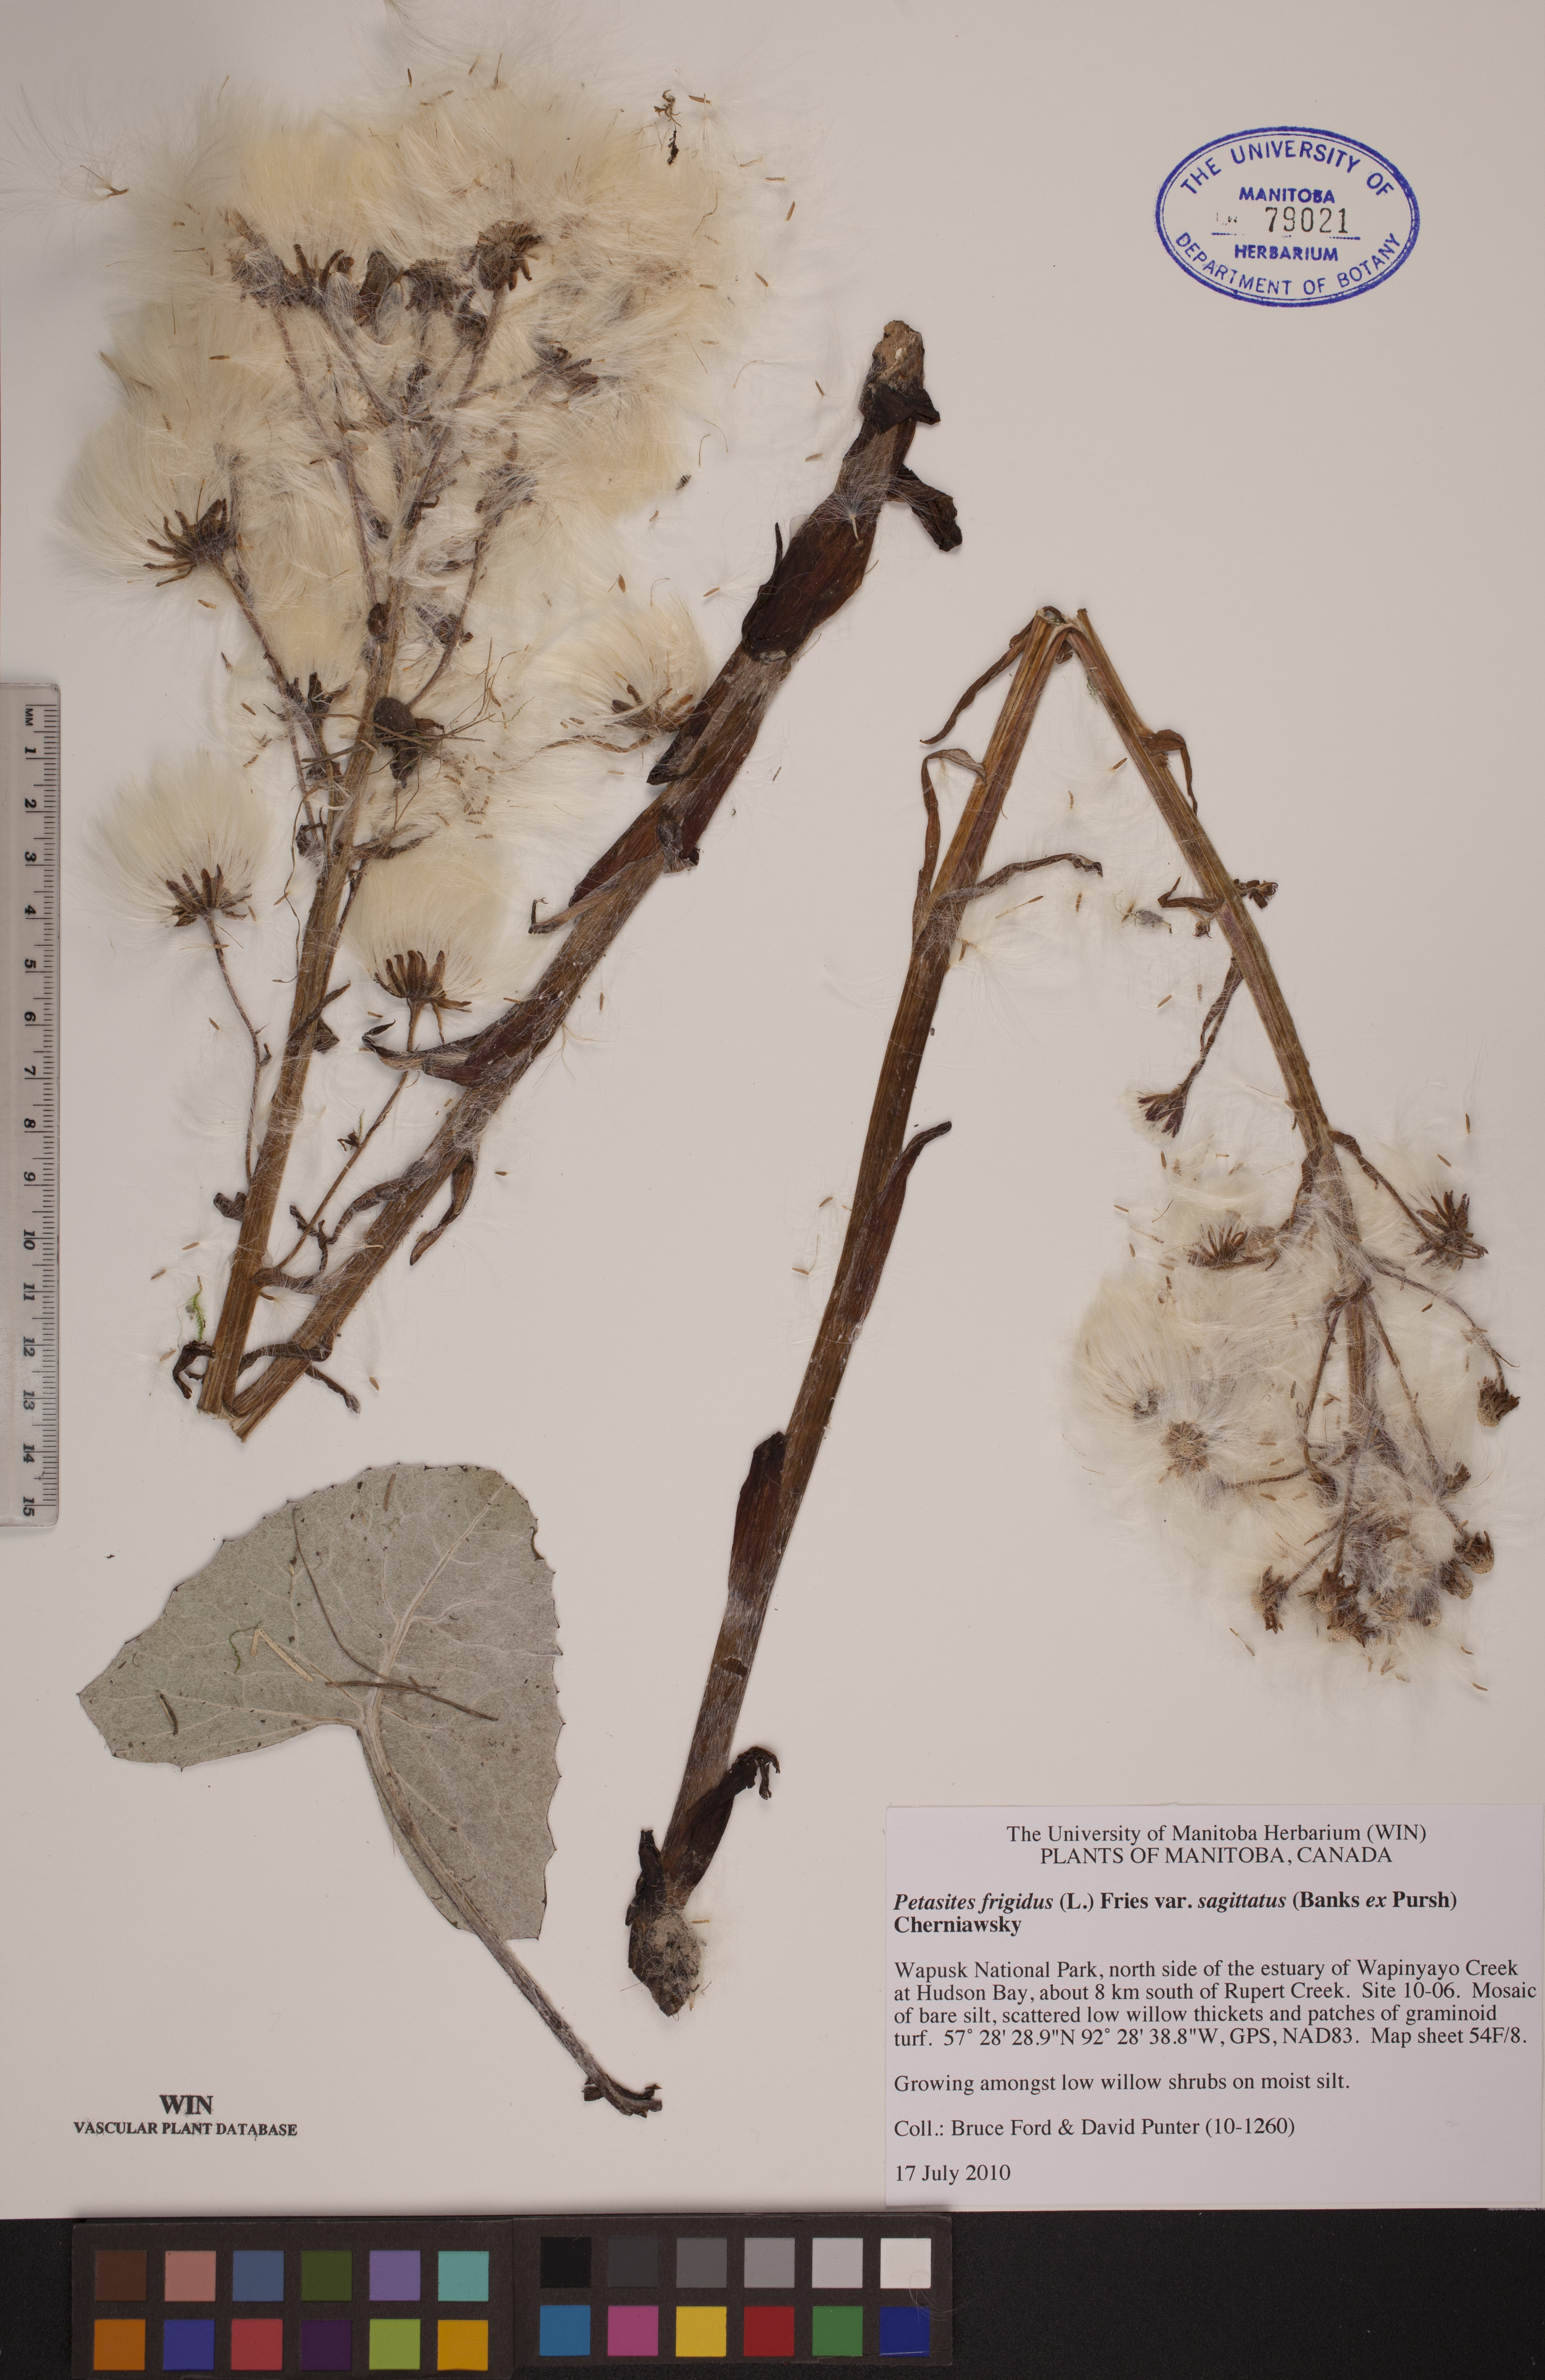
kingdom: Plantae
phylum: Tracheophyta
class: Magnoliopsida
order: Asterales
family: Asteraceae
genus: Petasites
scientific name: Petasites frigidus
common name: Arctic butterbur
